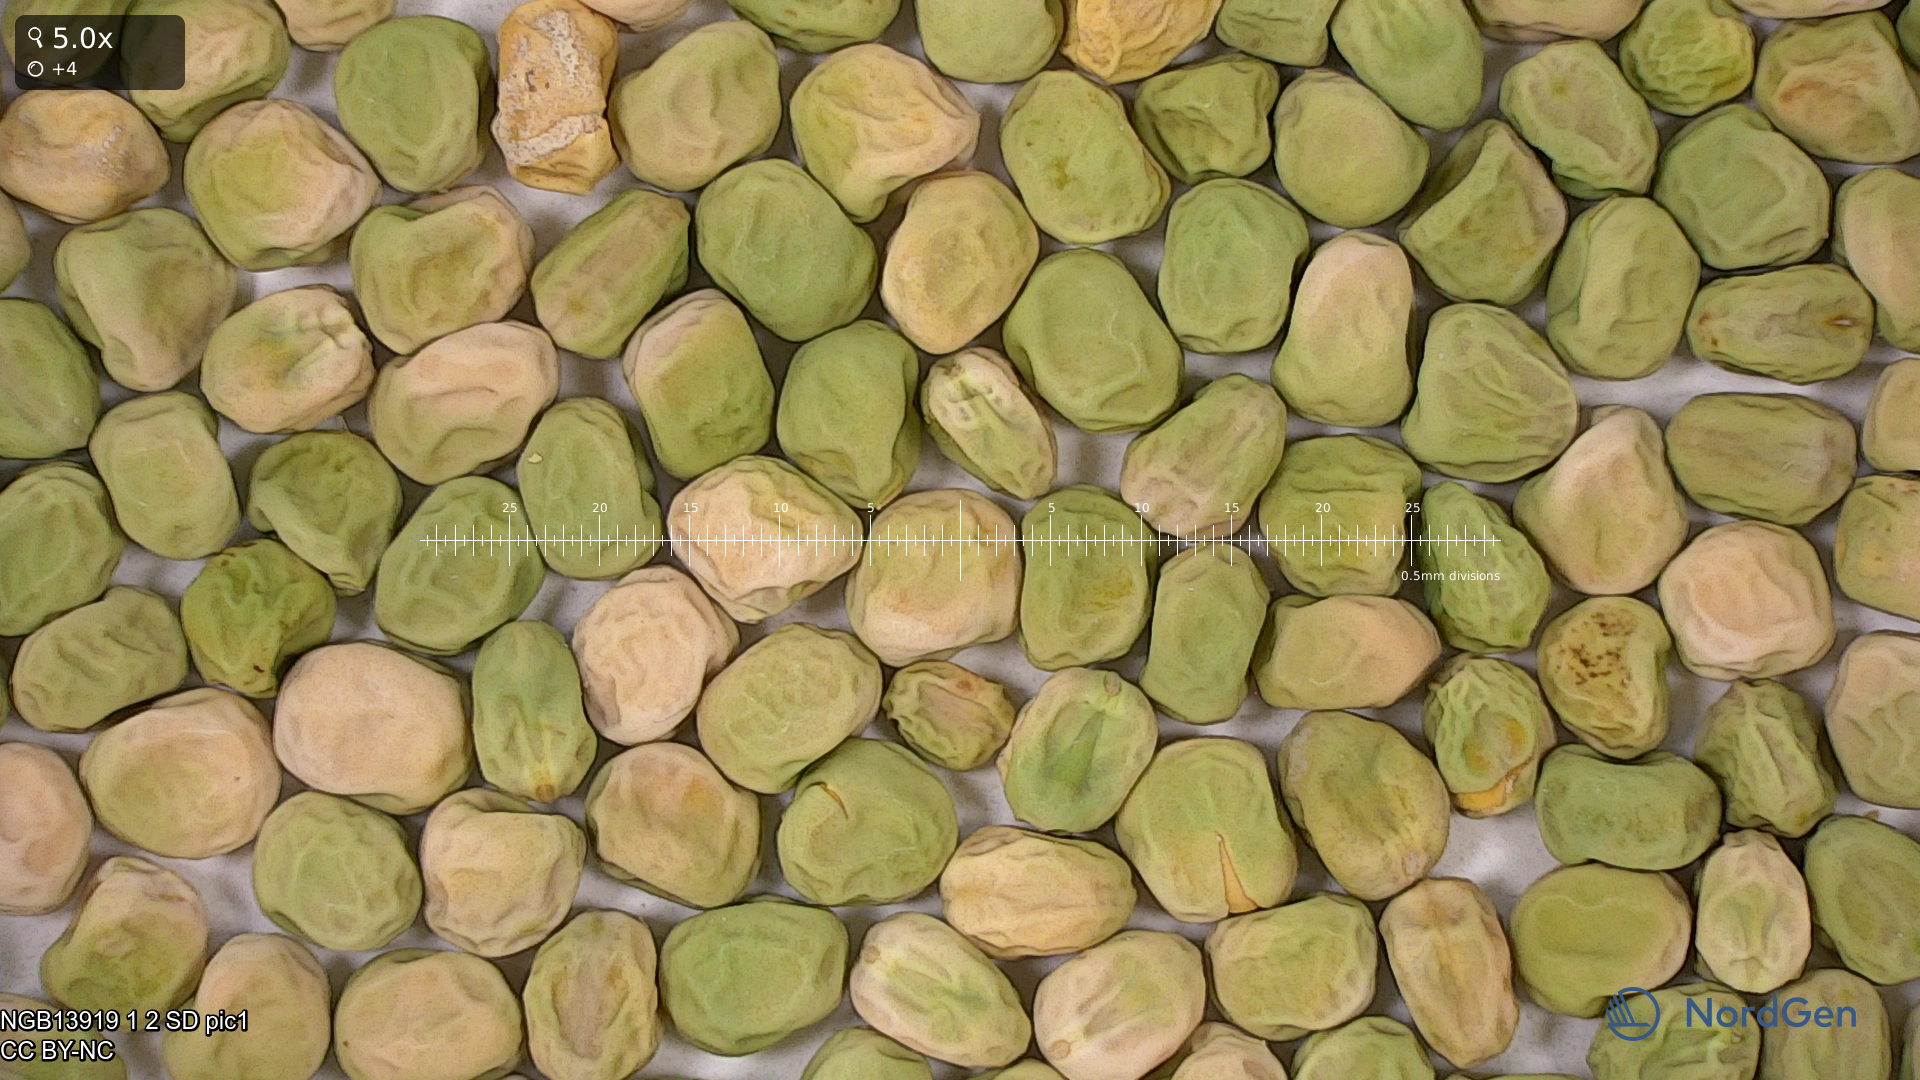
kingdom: Plantae
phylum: Tracheophyta
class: Magnoliopsida
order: Fabales
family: Fabaceae
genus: Lathyrus
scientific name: Lathyrus oleraceus
